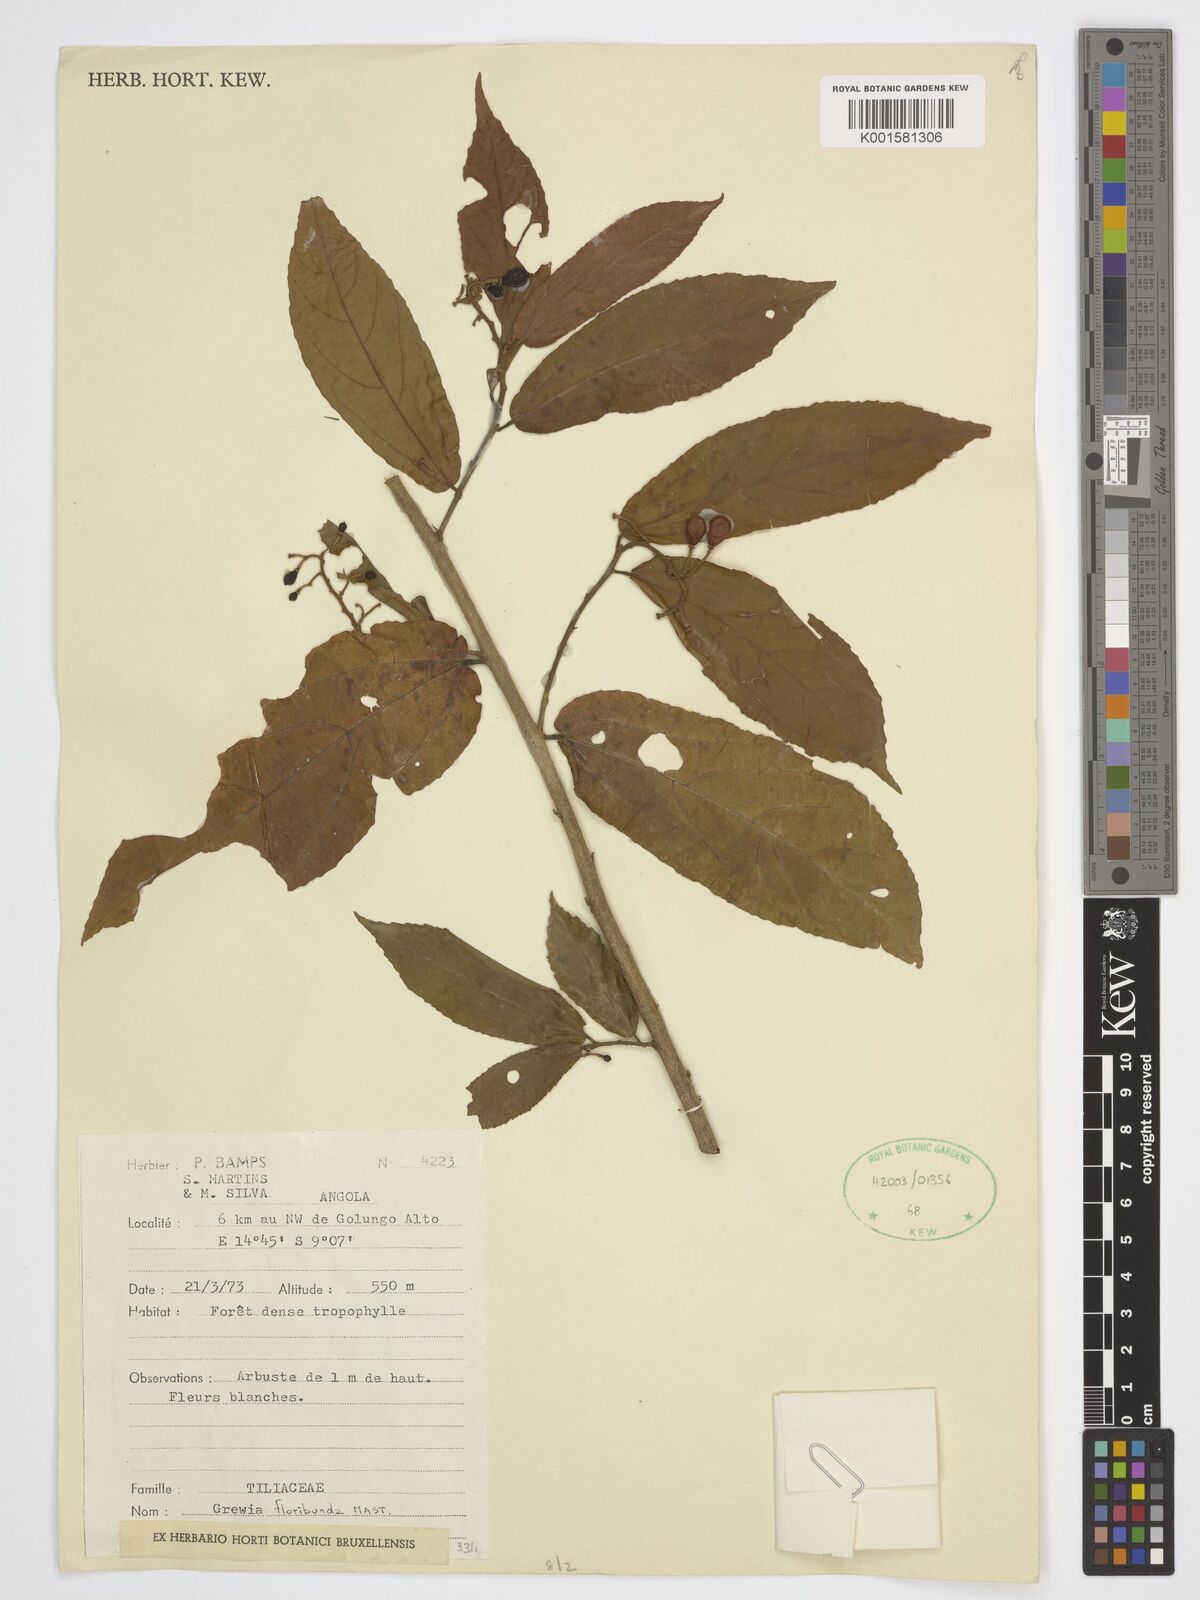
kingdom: Plantae
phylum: Tracheophyta
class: Magnoliopsida
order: Malvales
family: Malvaceae
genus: Colona
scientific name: Colona floribunda
